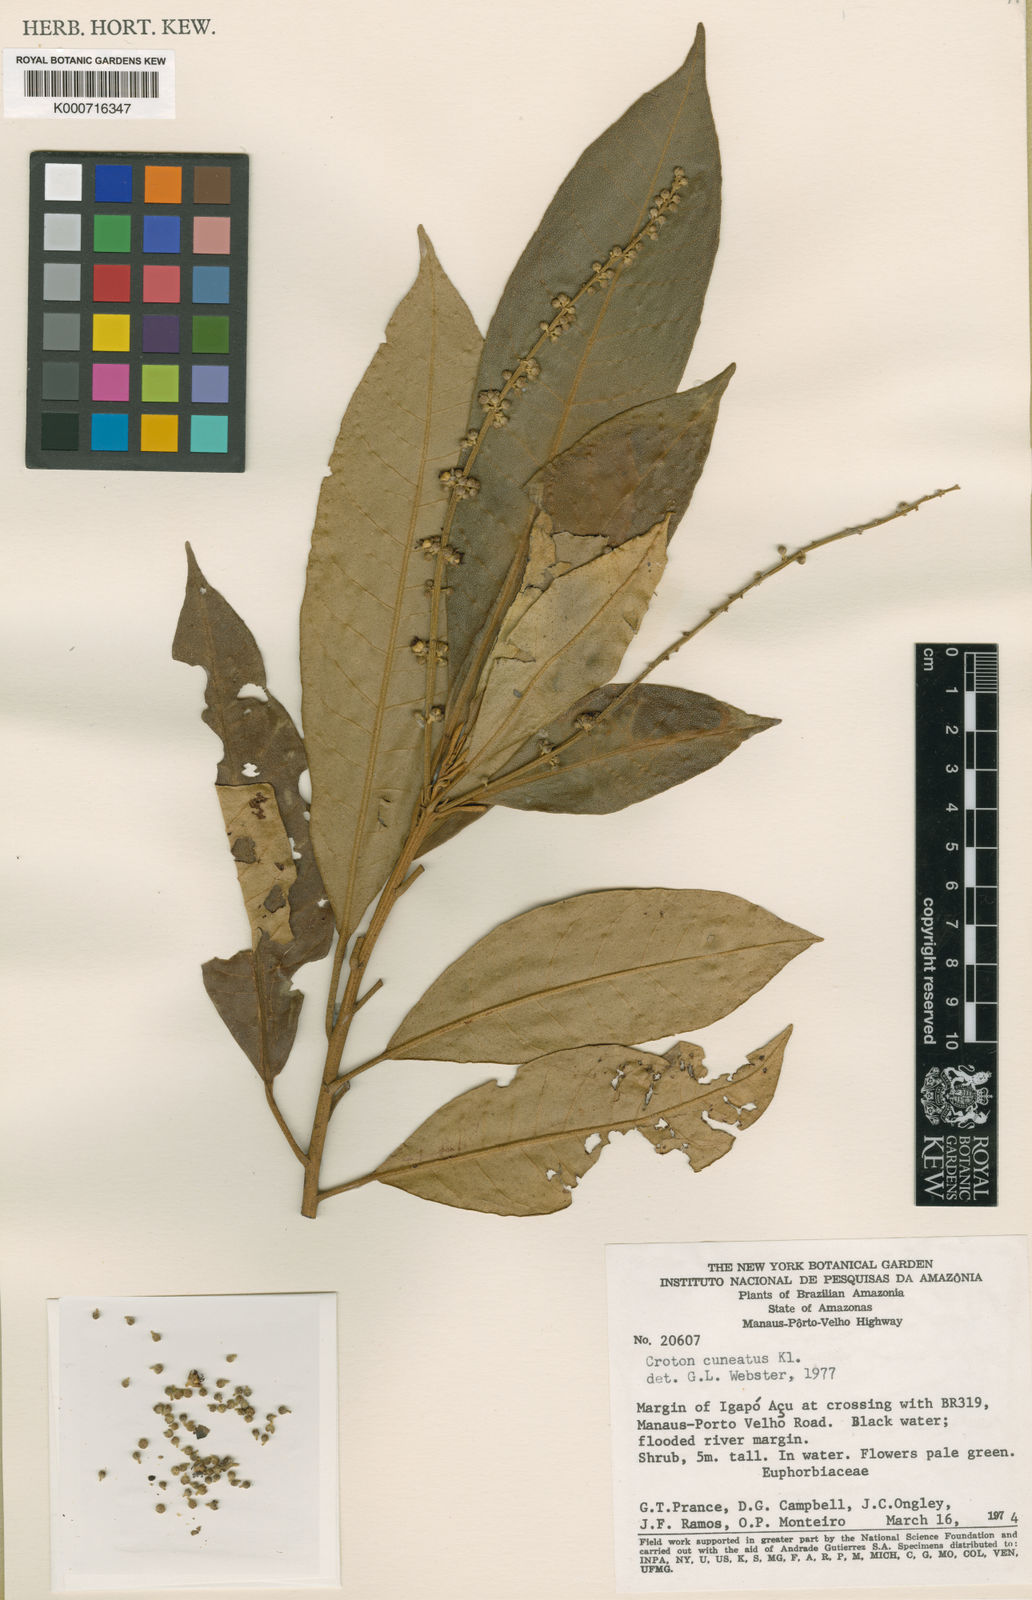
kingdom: Plantae
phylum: Tracheophyta
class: Magnoliopsida
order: Malpighiales
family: Euphorbiaceae
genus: Croton
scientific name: Croton cuneatus
